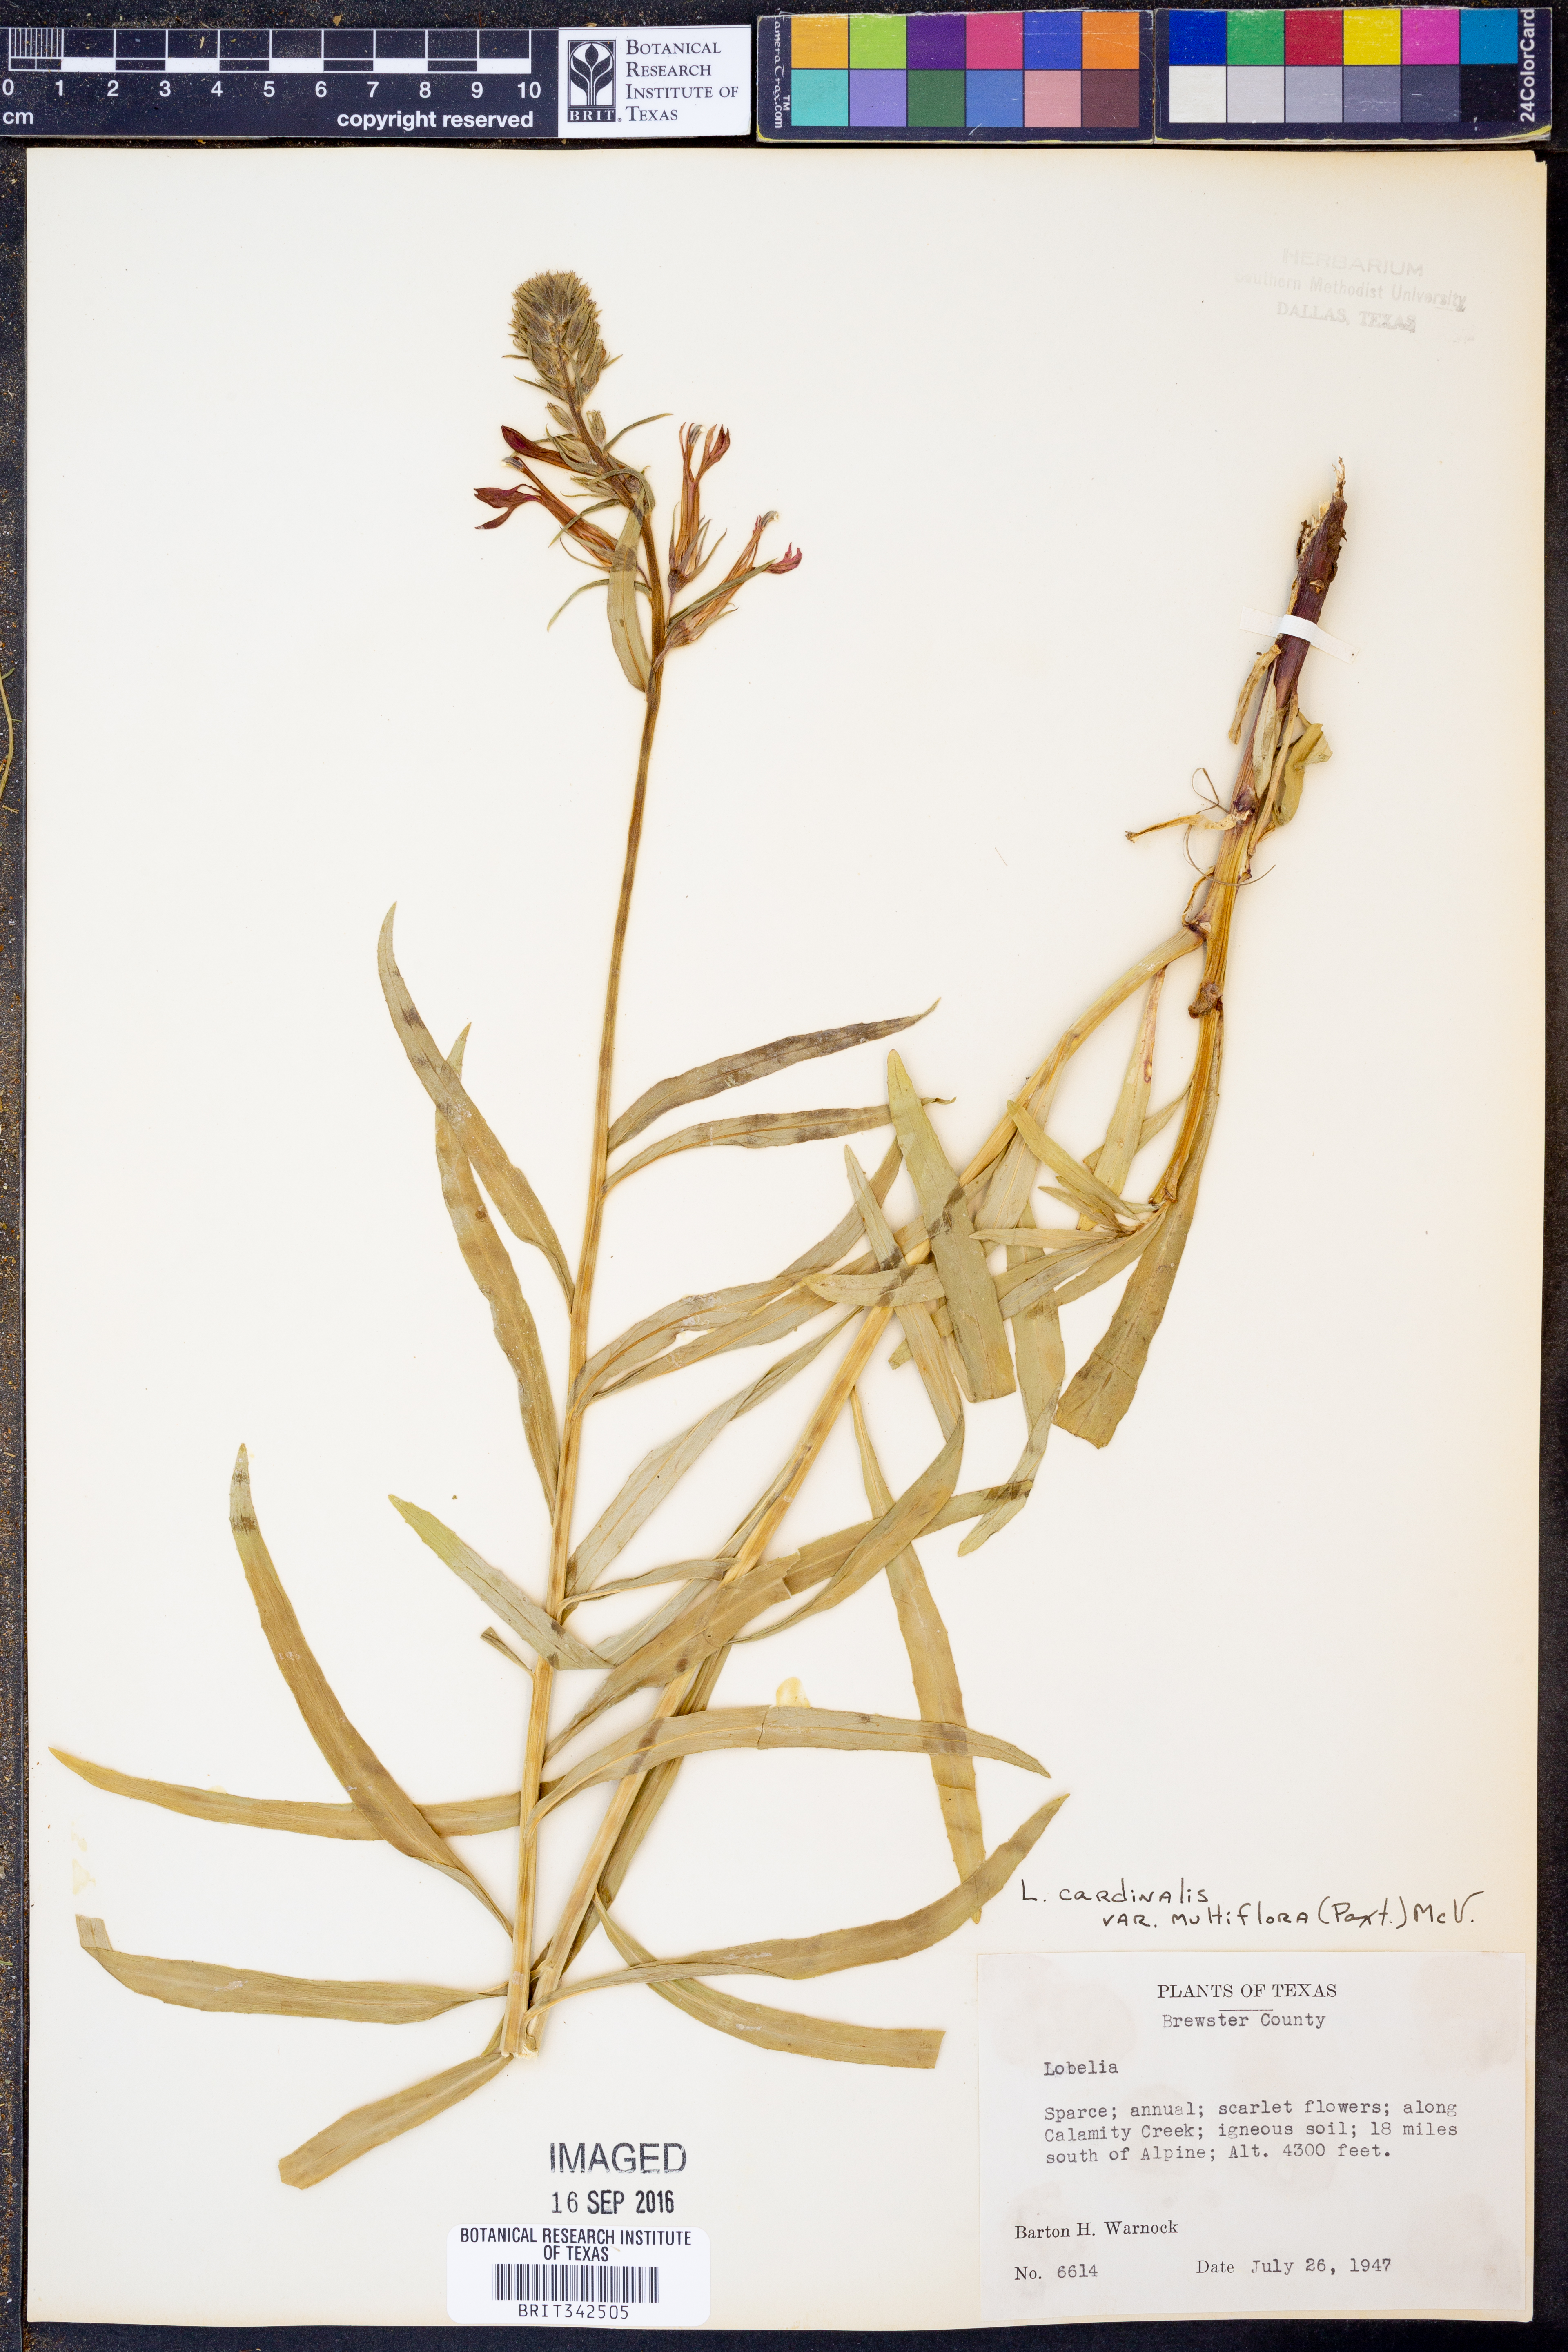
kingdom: Plantae
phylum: Tracheophyta
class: Magnoliopsida
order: Asterales
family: Campanulaceae
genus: Lobelia
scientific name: Lobelia cardinalis
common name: Cardinal flower
